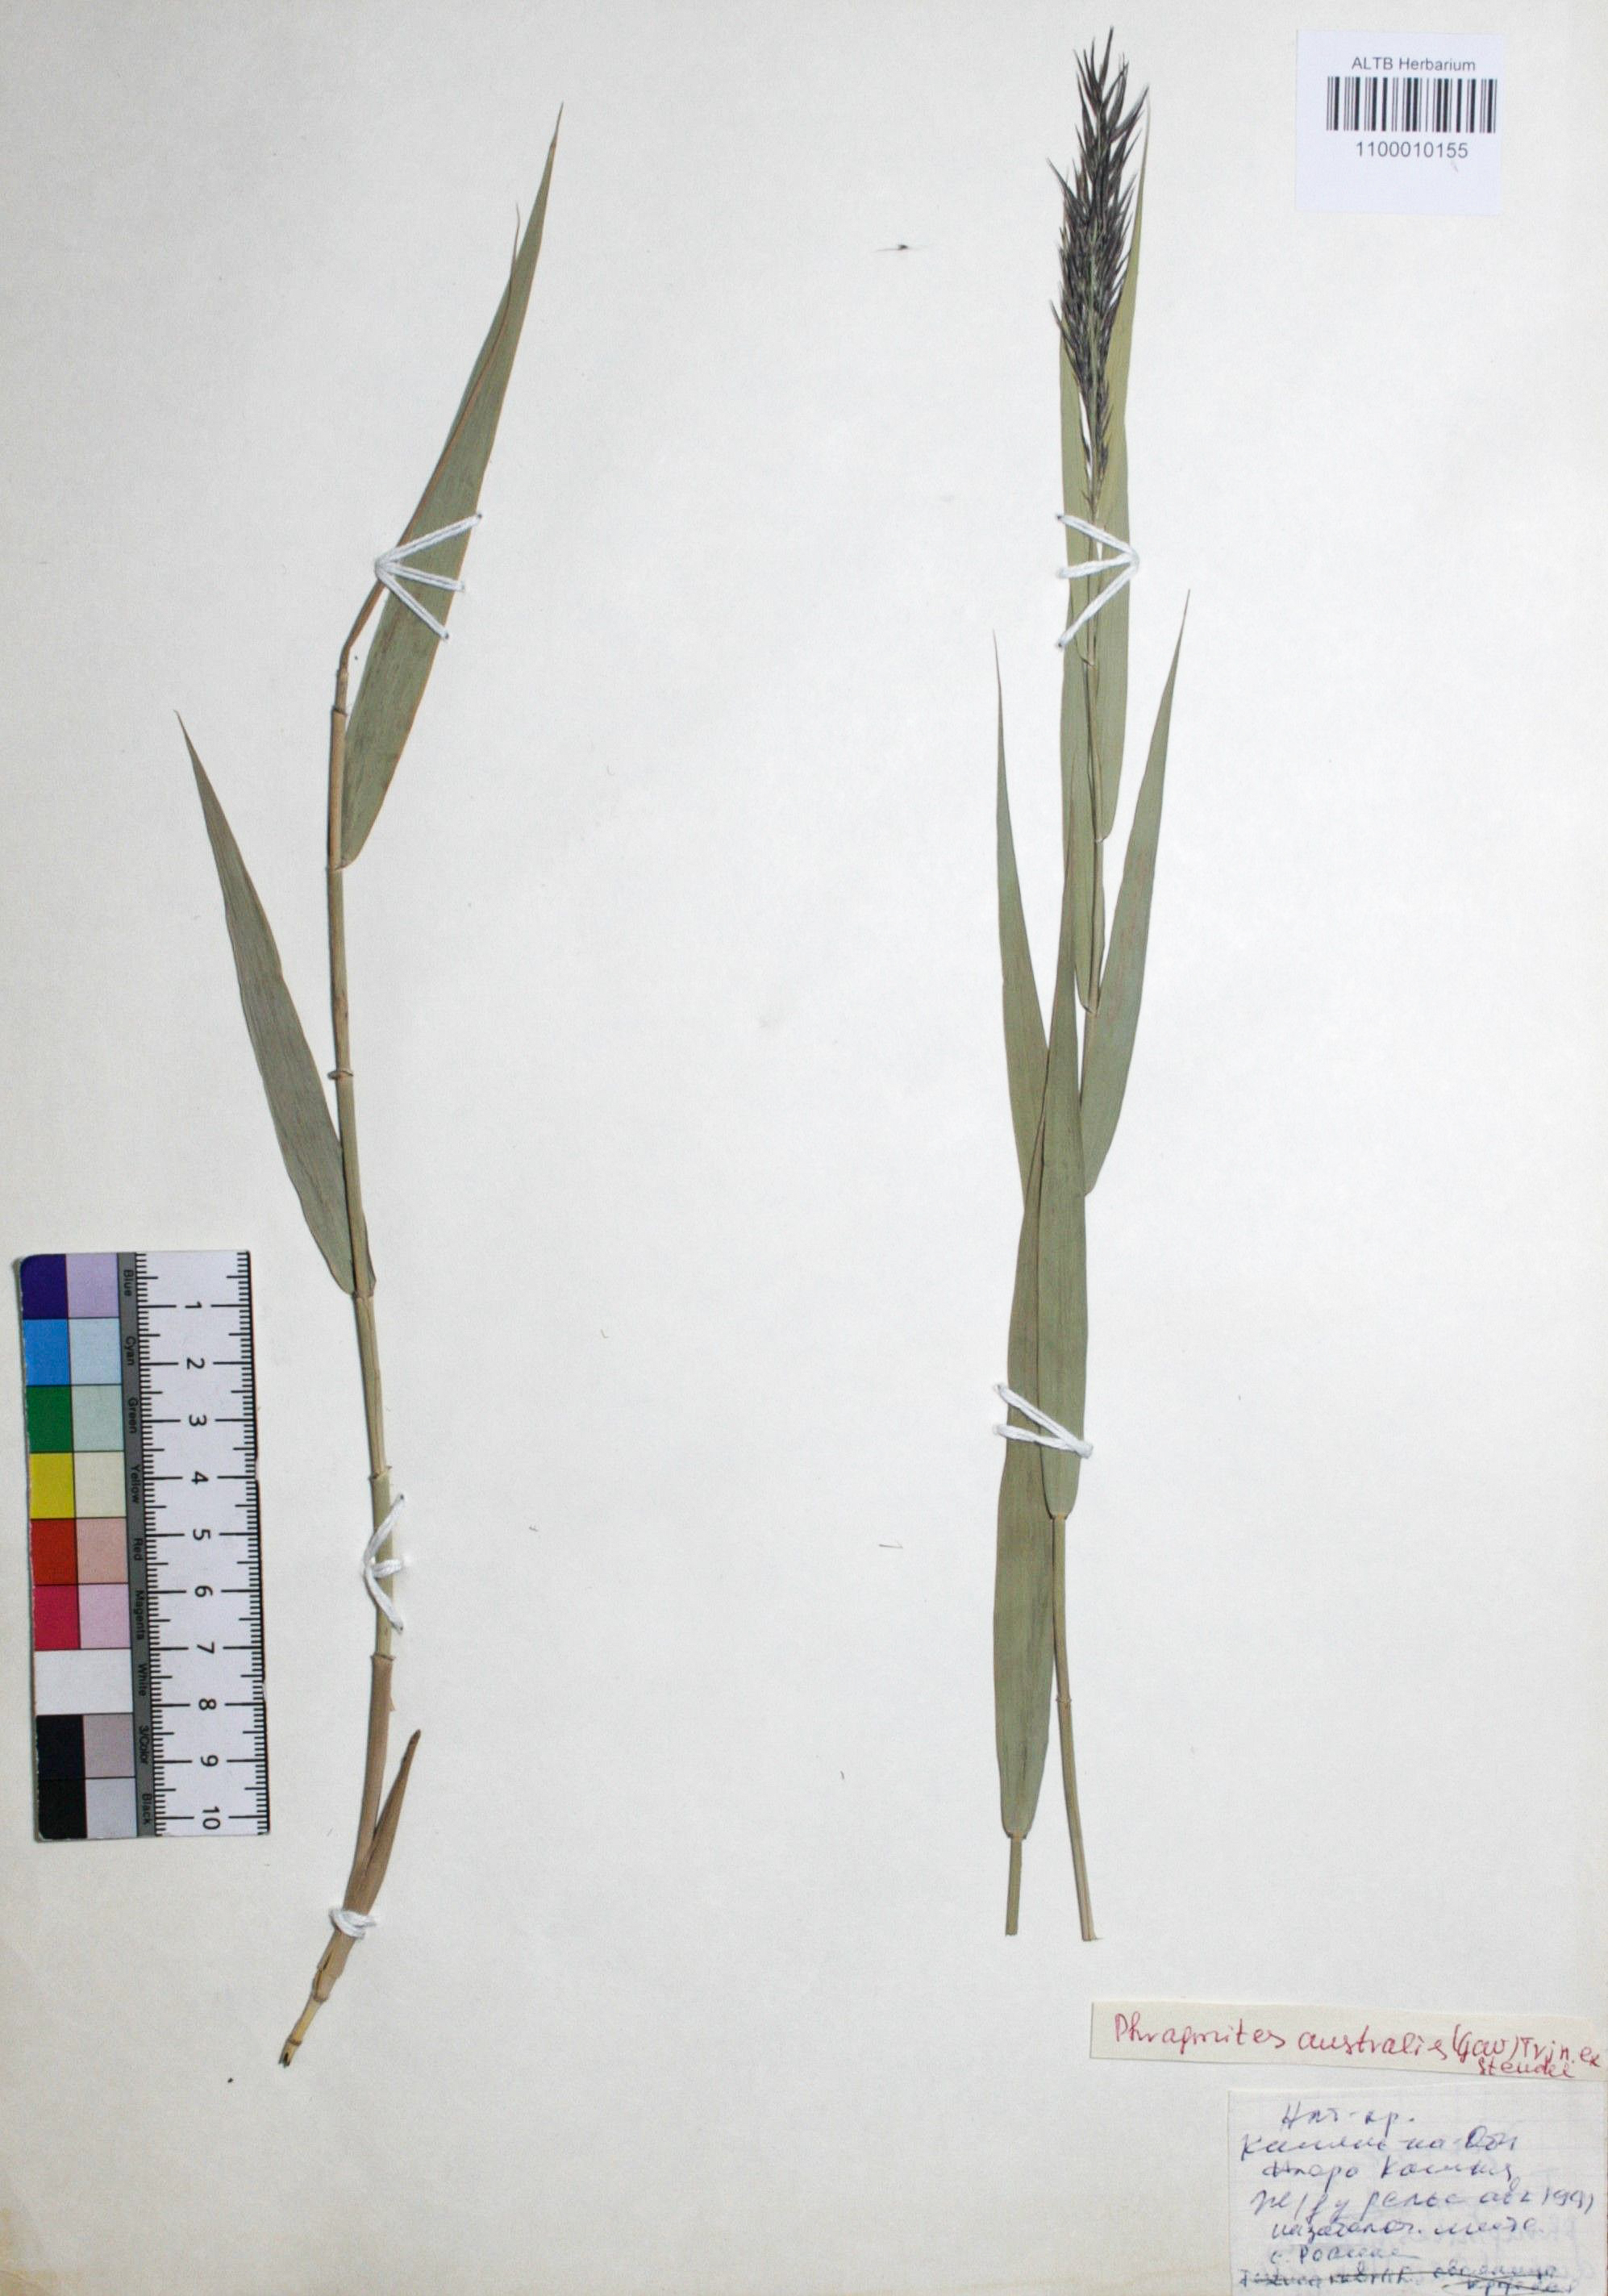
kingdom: Plantae
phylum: Tracheophyta
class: Liliopsida
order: Poales
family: Poaceae
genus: Phragmites
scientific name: Phragmites australis
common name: Common reed
